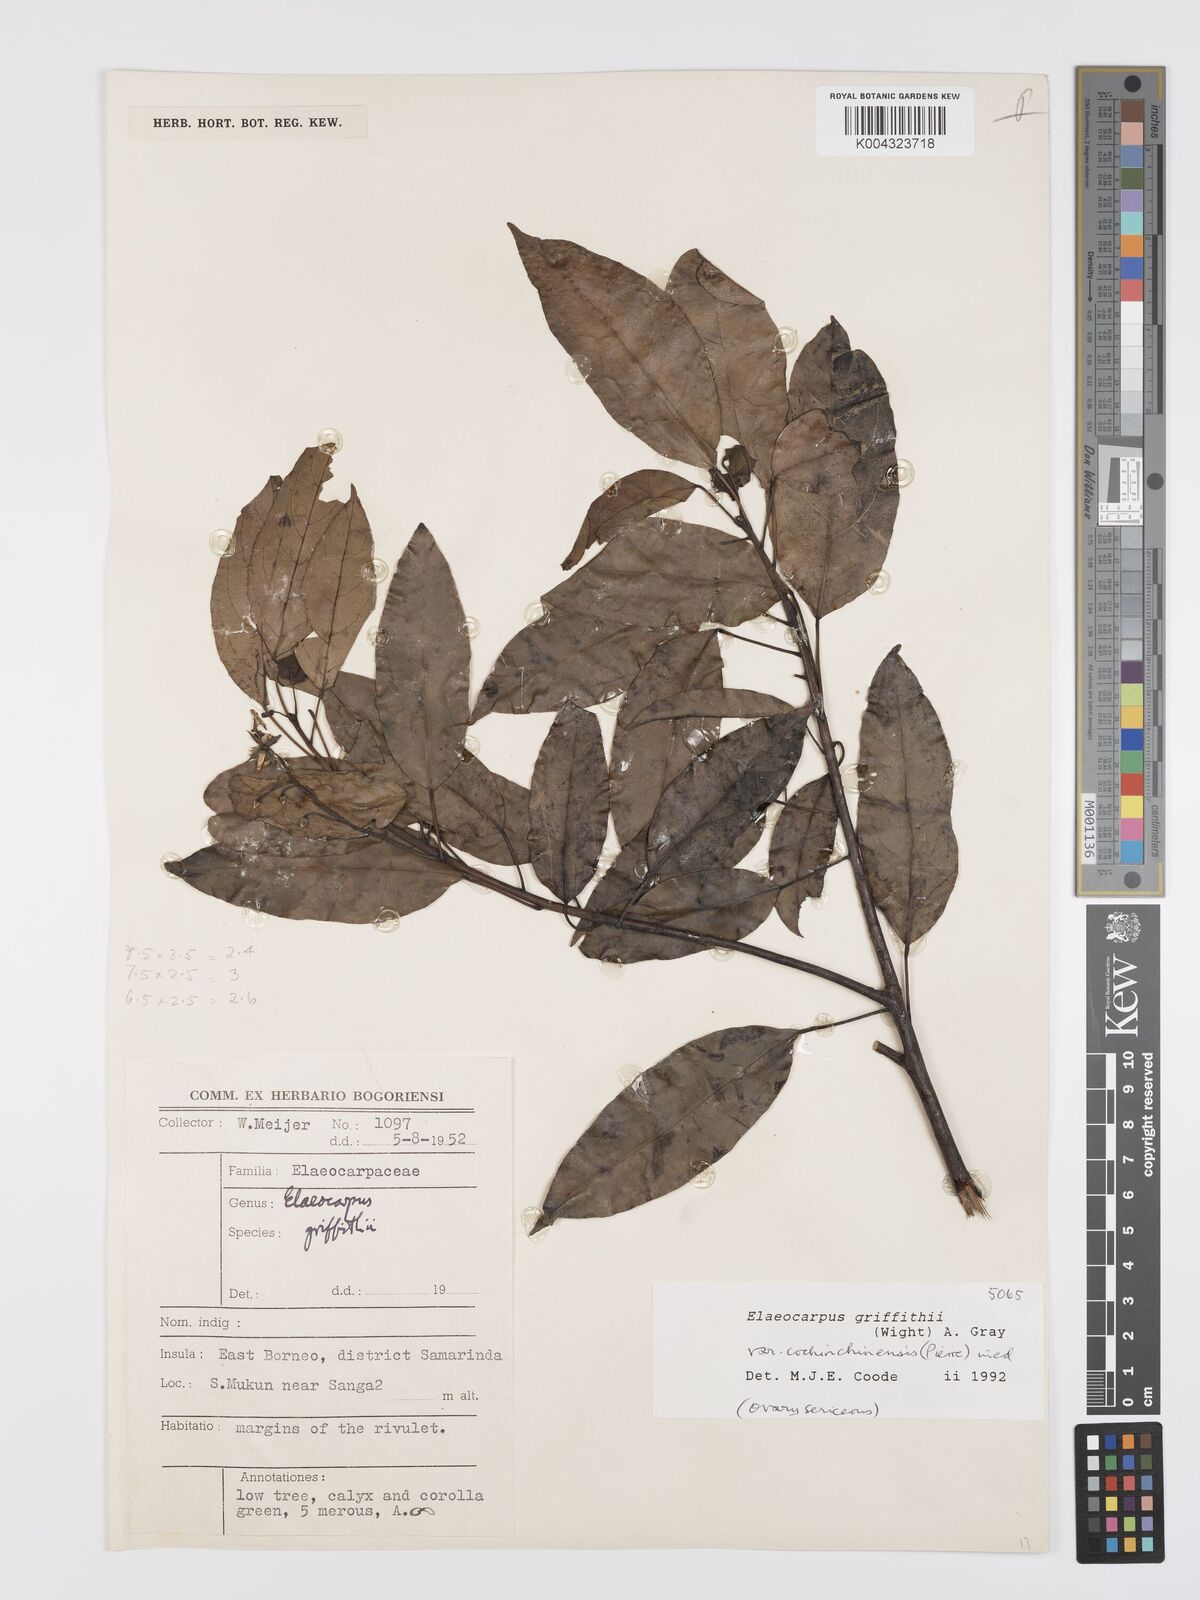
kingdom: Plantae
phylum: Tracheophyta
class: Magnoliopsida
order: Oxalidales
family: Elaeocarpaceae
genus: Elaeocarpus
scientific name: Elaeocarpus griffithii
